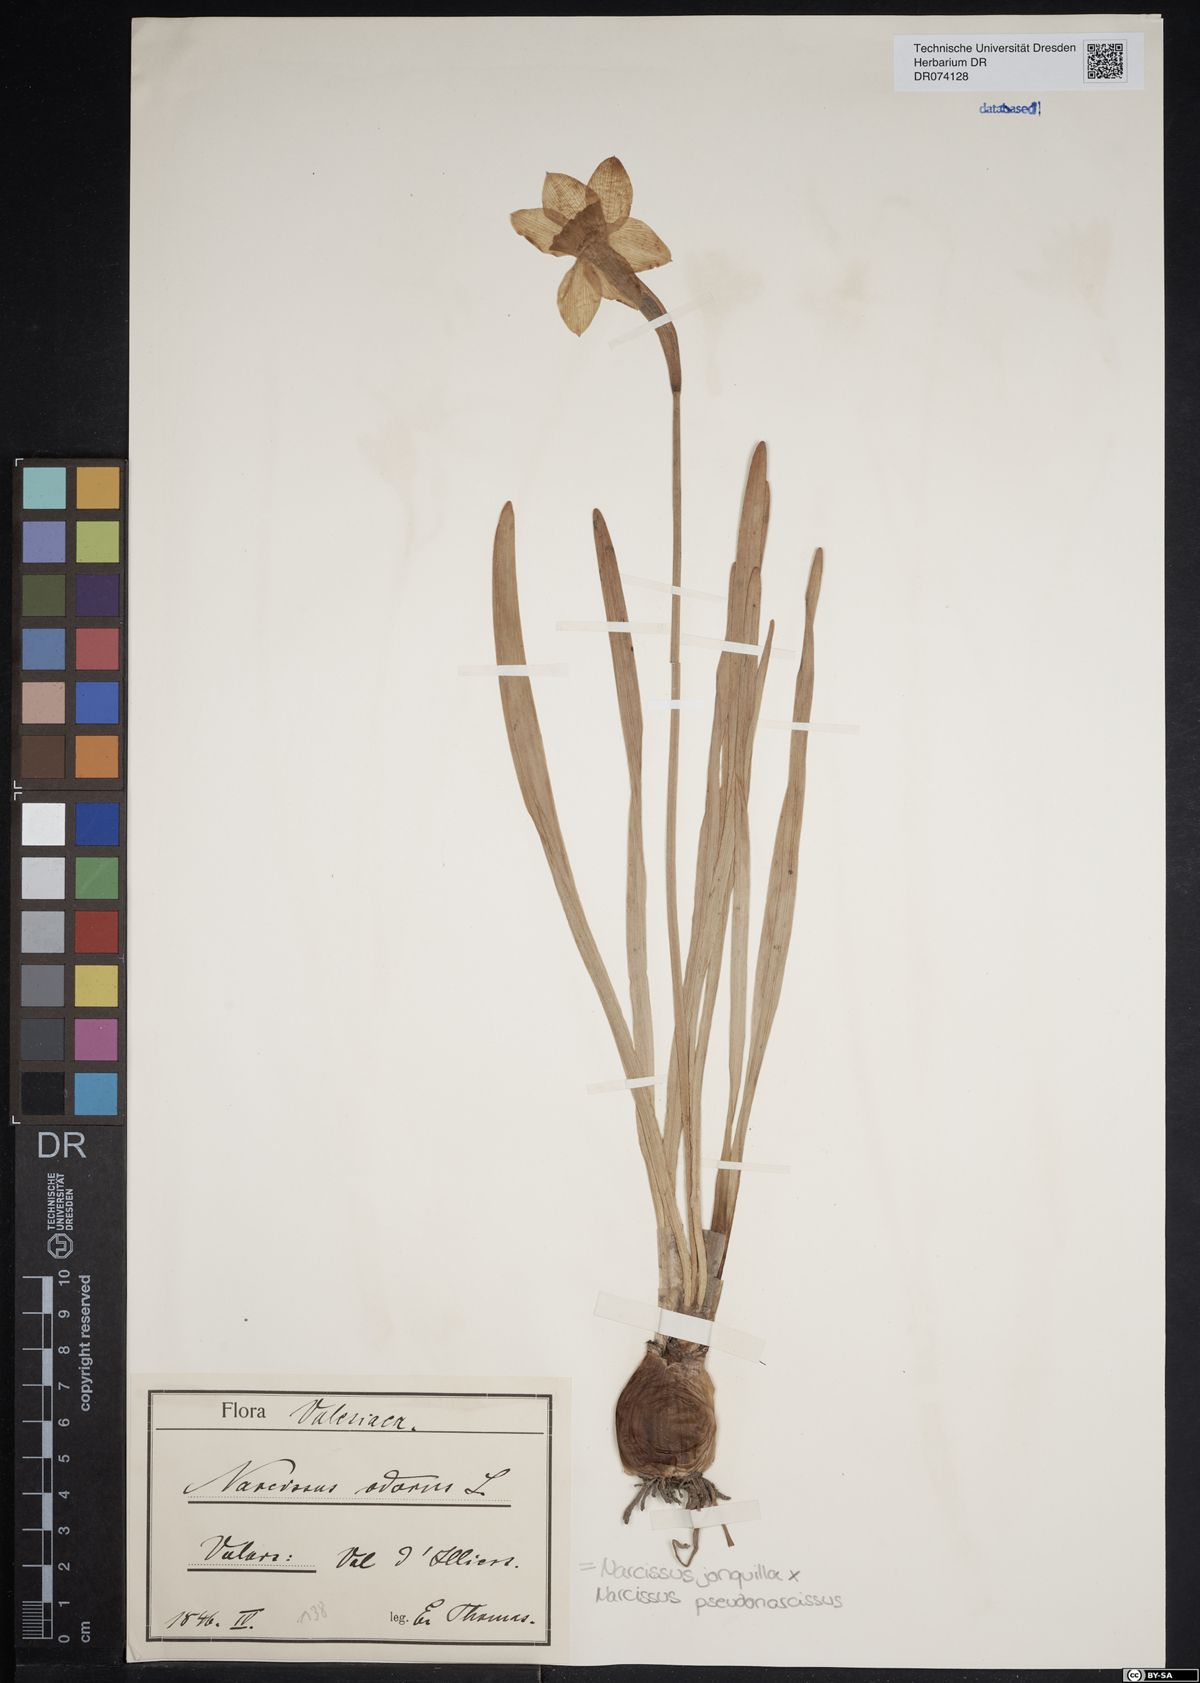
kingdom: Plantae
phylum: Tracheophyta
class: Liliopsida
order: Asparagales
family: Amaryllidaceae
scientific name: Amaryllidaceae
